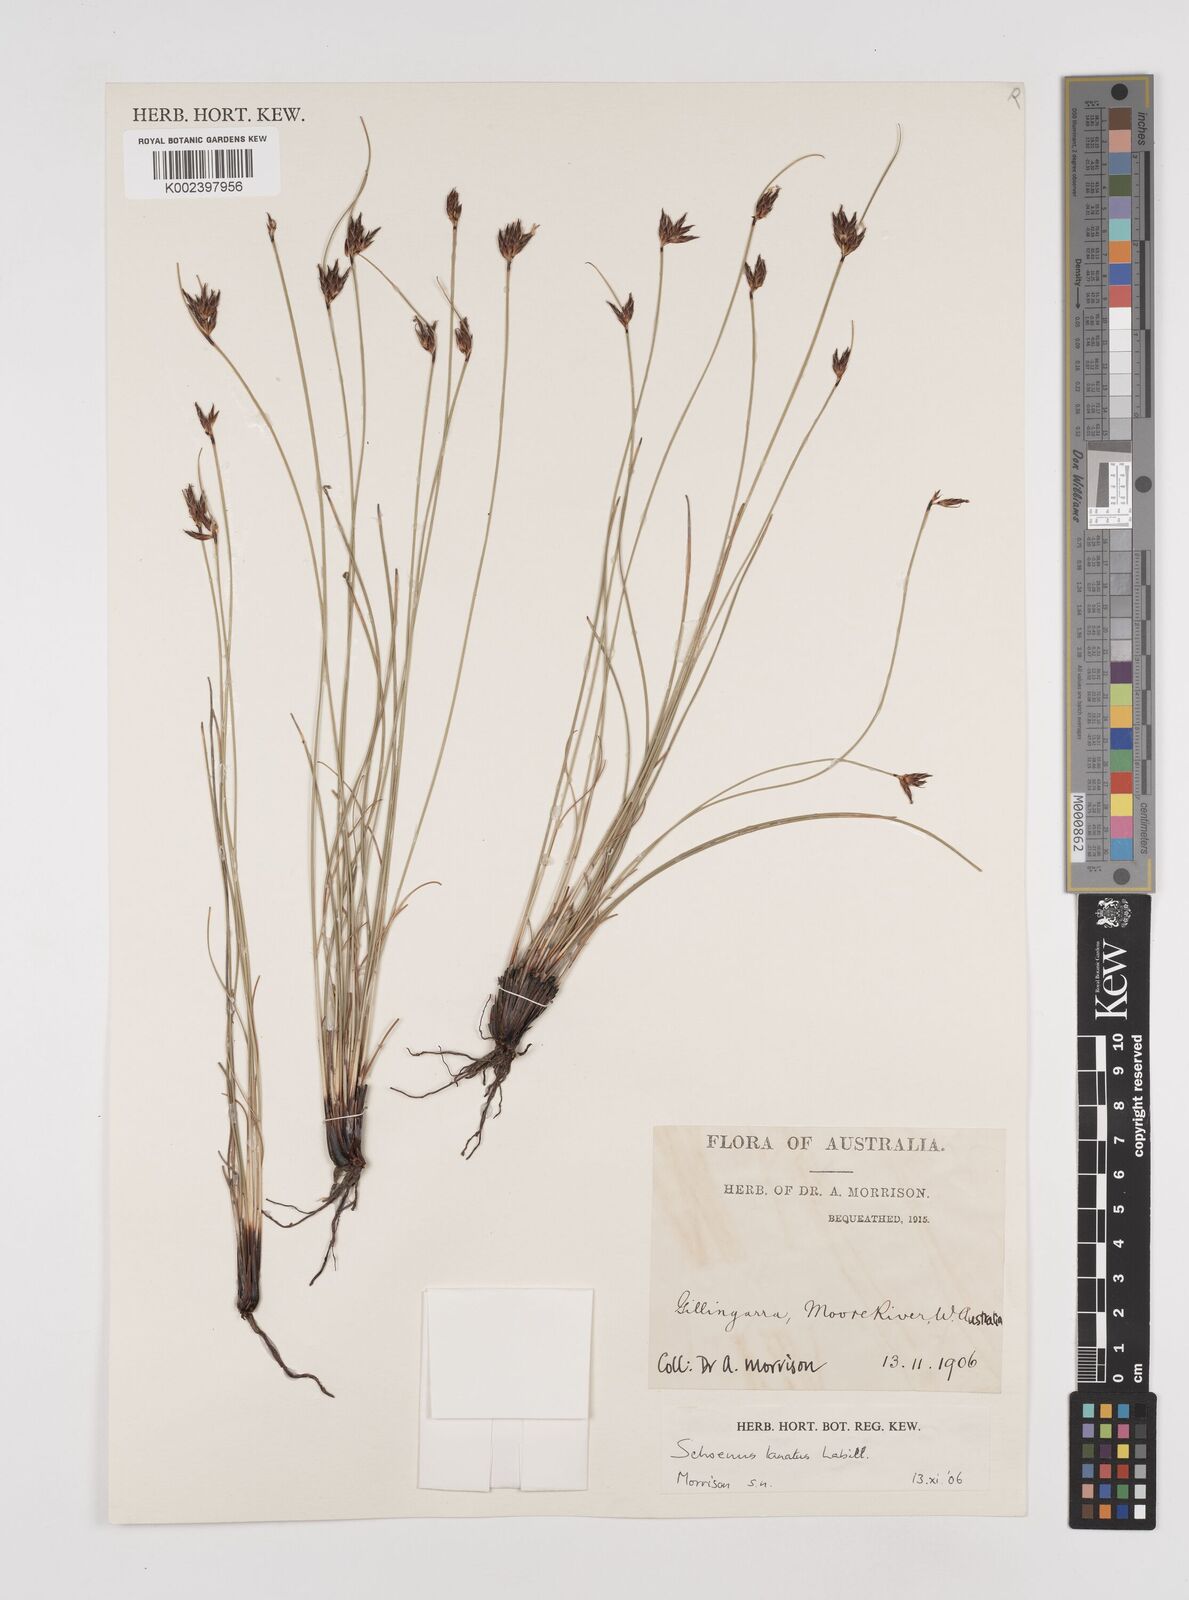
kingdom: Plantae
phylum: Tracheophyta
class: Liliopsida
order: Poales
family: Cyperaceae
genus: Schoenus
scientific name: Schoenus lanatus
